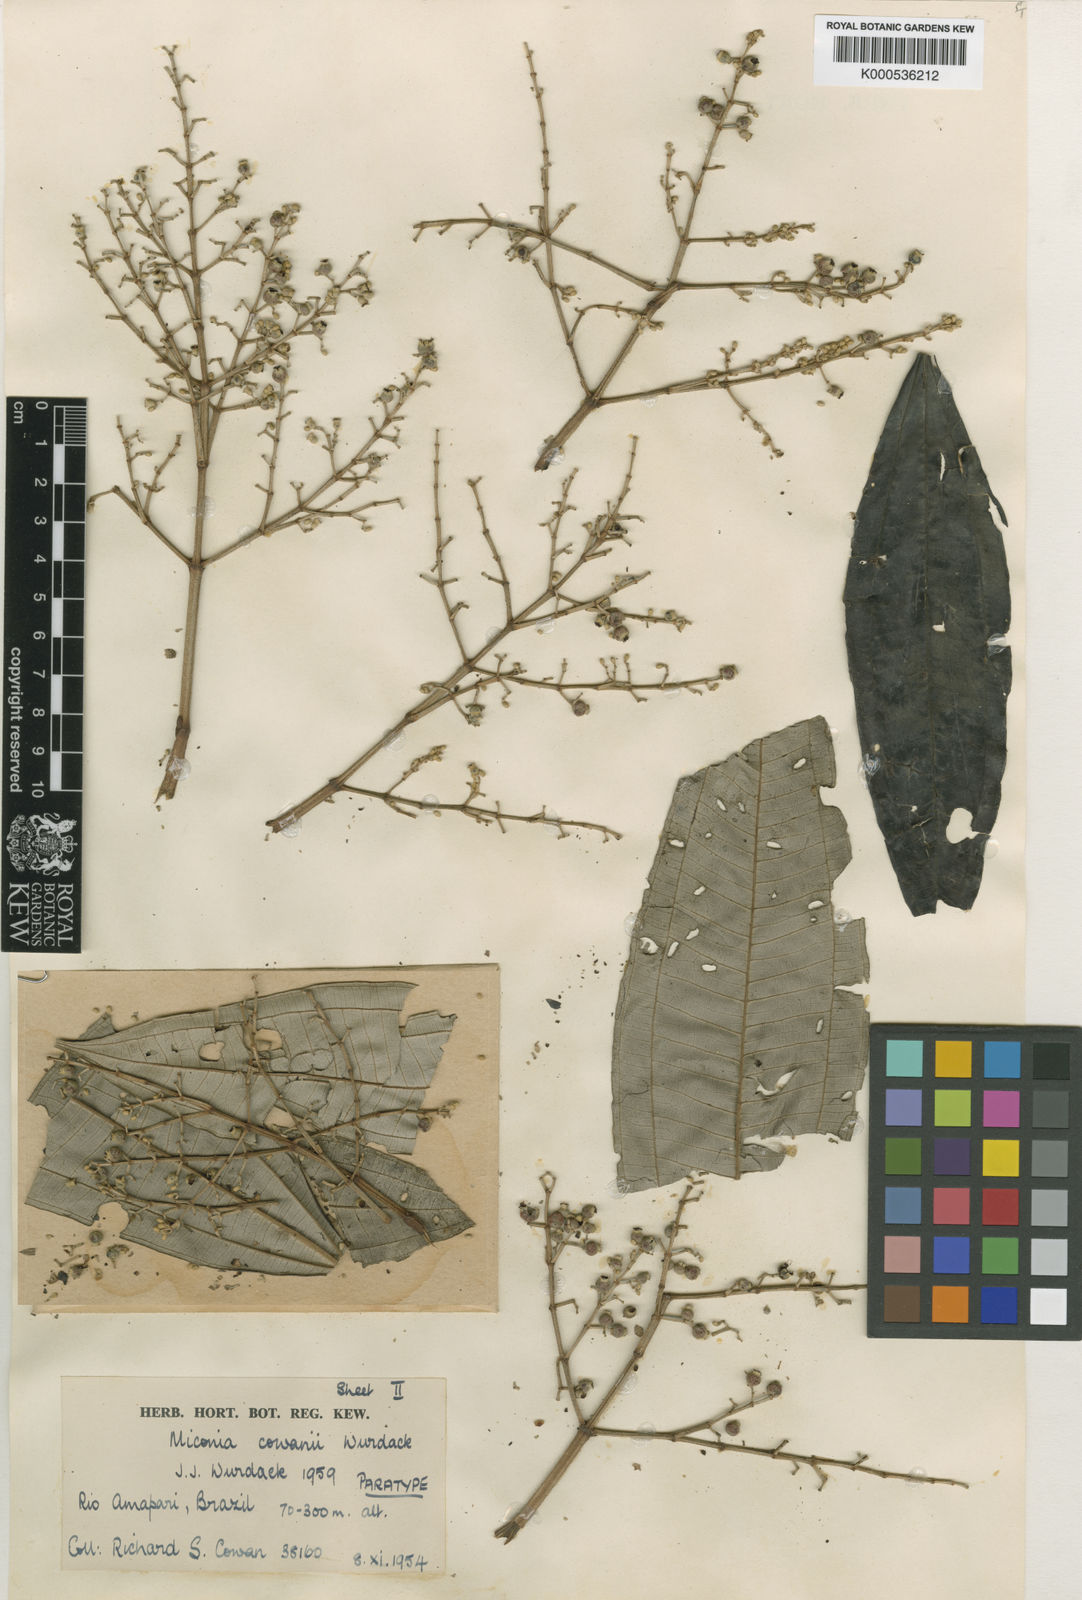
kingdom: Plantae
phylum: Tracheophyta
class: Magnoliopsida
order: Myrtales
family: Melastomataceae
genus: Miconia
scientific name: Miconia cowanii
